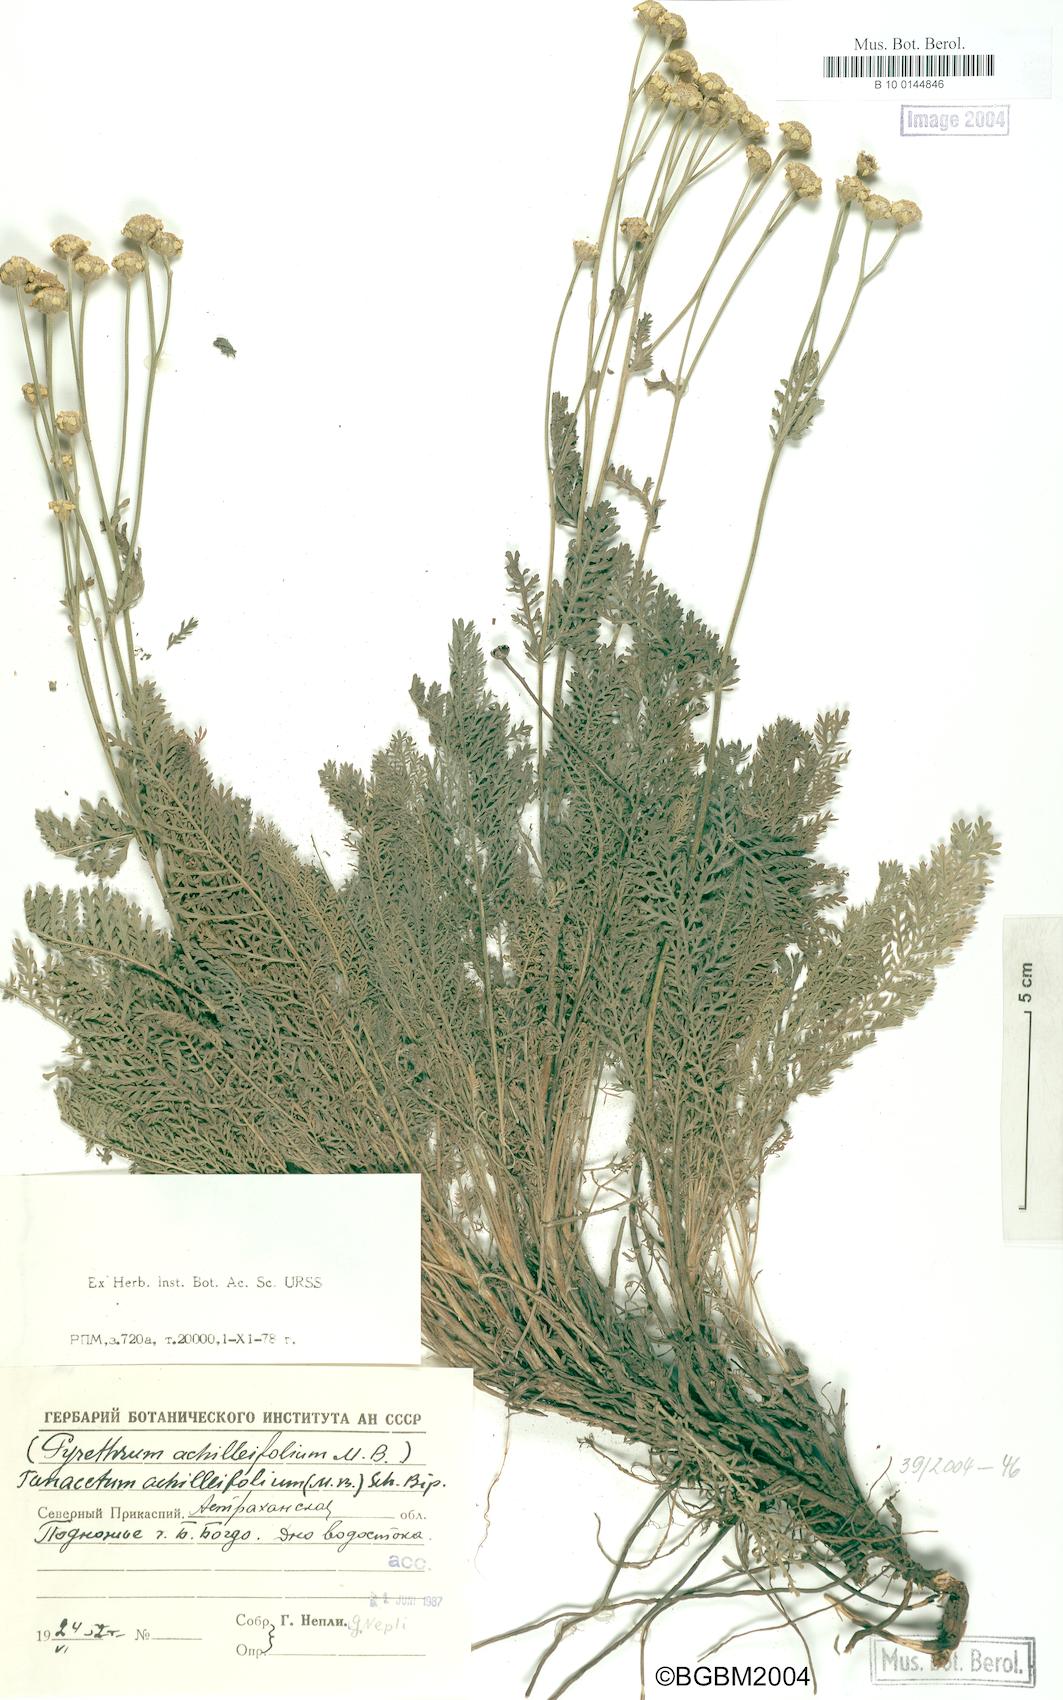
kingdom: Plantae
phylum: Tracheophyta
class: Magnoliopsida
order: Asterales
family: Asteraceae
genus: Tanacetum
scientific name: Tanacetum achilleifolium
